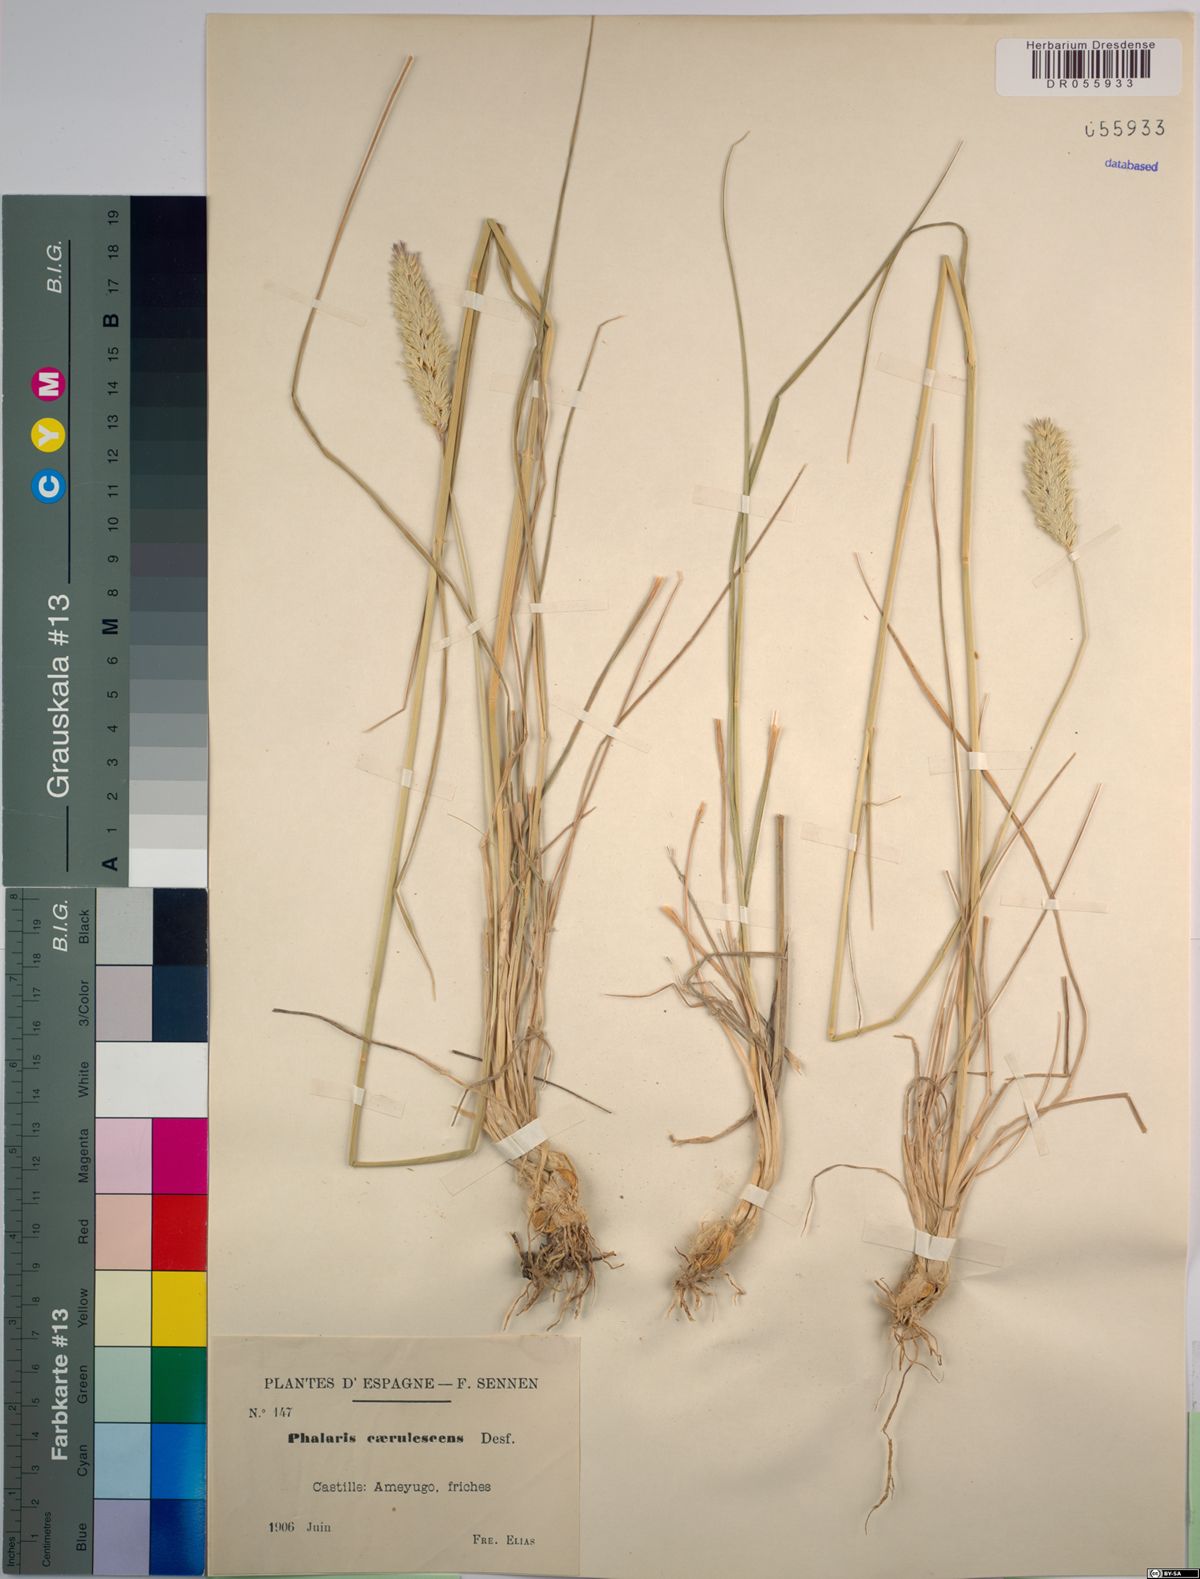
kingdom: Plantae
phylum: Tracheophyta
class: Liliopsida
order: Poales
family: Poaceae
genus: Phalaris
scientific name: Phalaris coerulescens
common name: Sunolgrass
